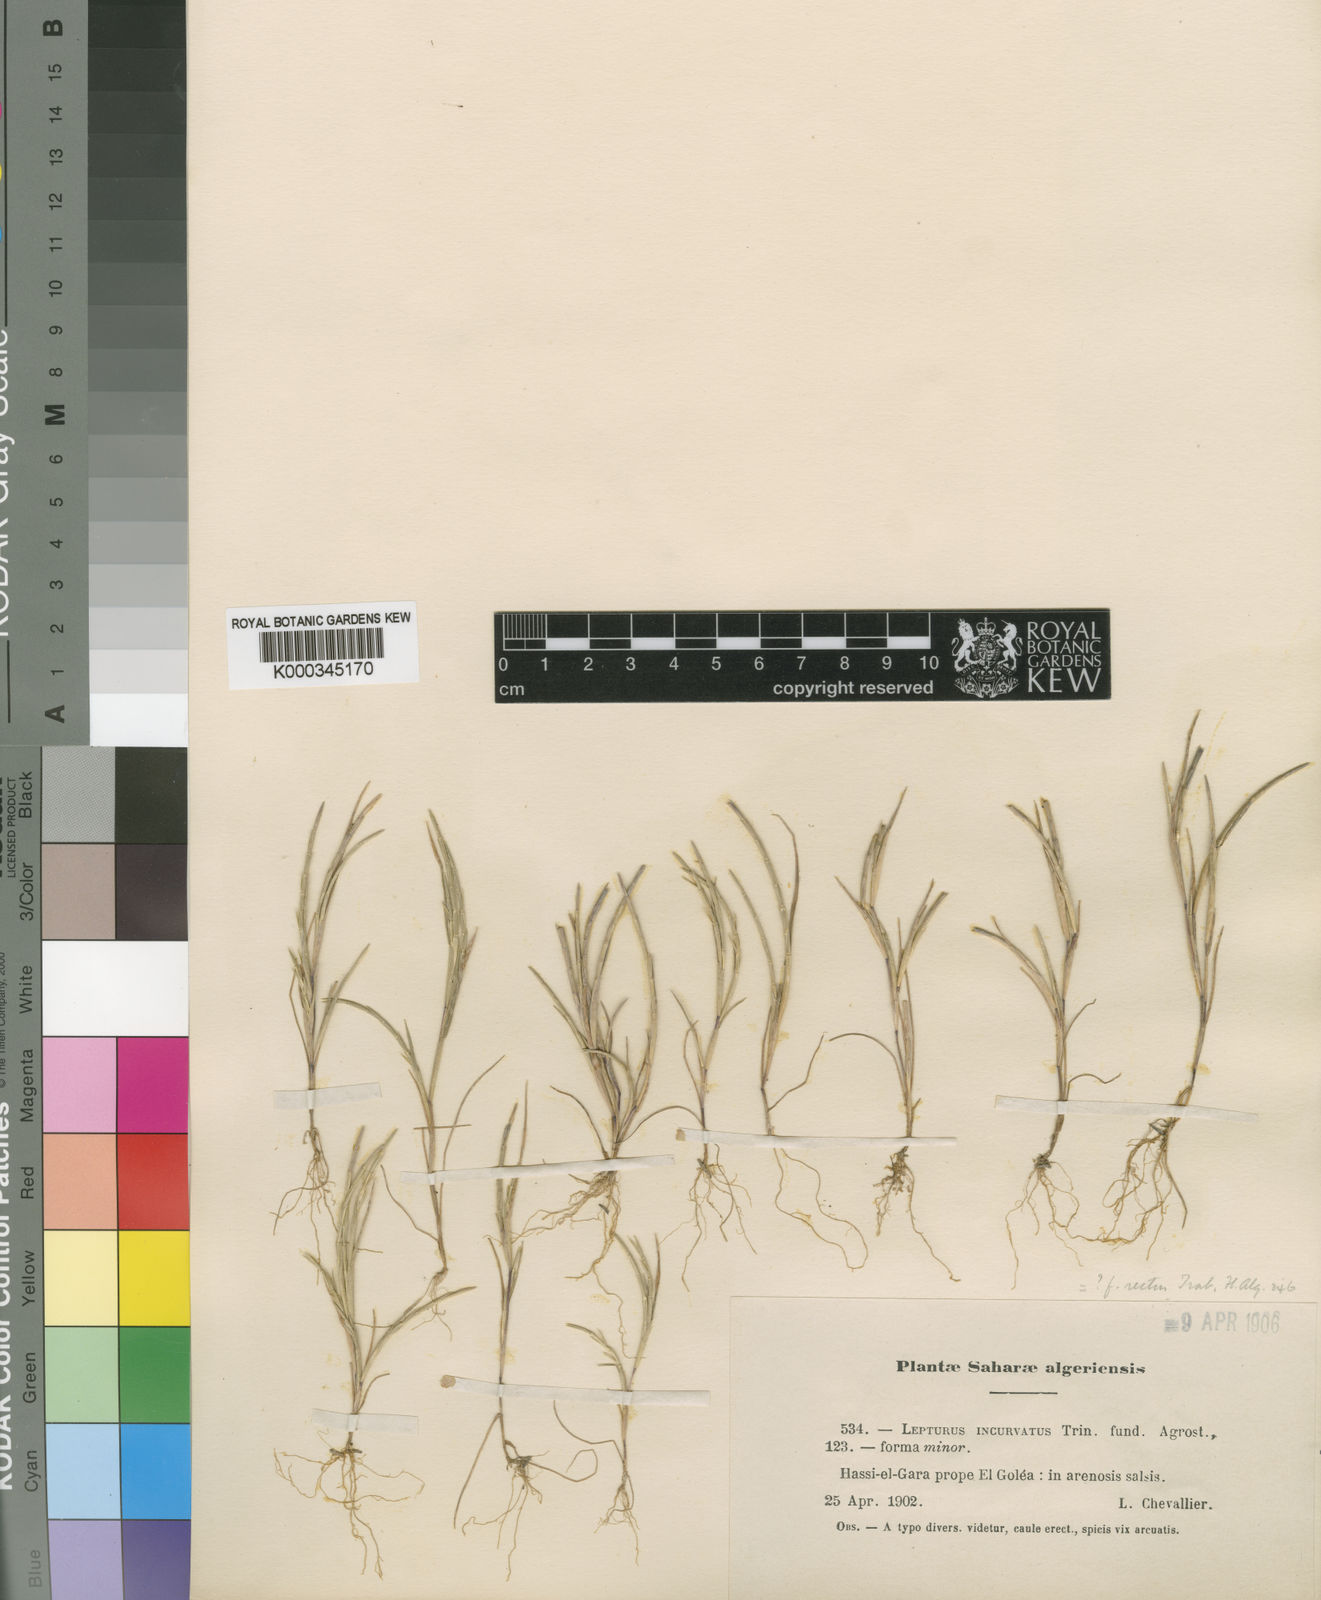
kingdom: Plantae
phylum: Tracheophyta
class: Liliopsida
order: Poales
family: Poaceae
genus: Parapholis
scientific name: Parapholis incurva
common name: Curved sicklegrass
